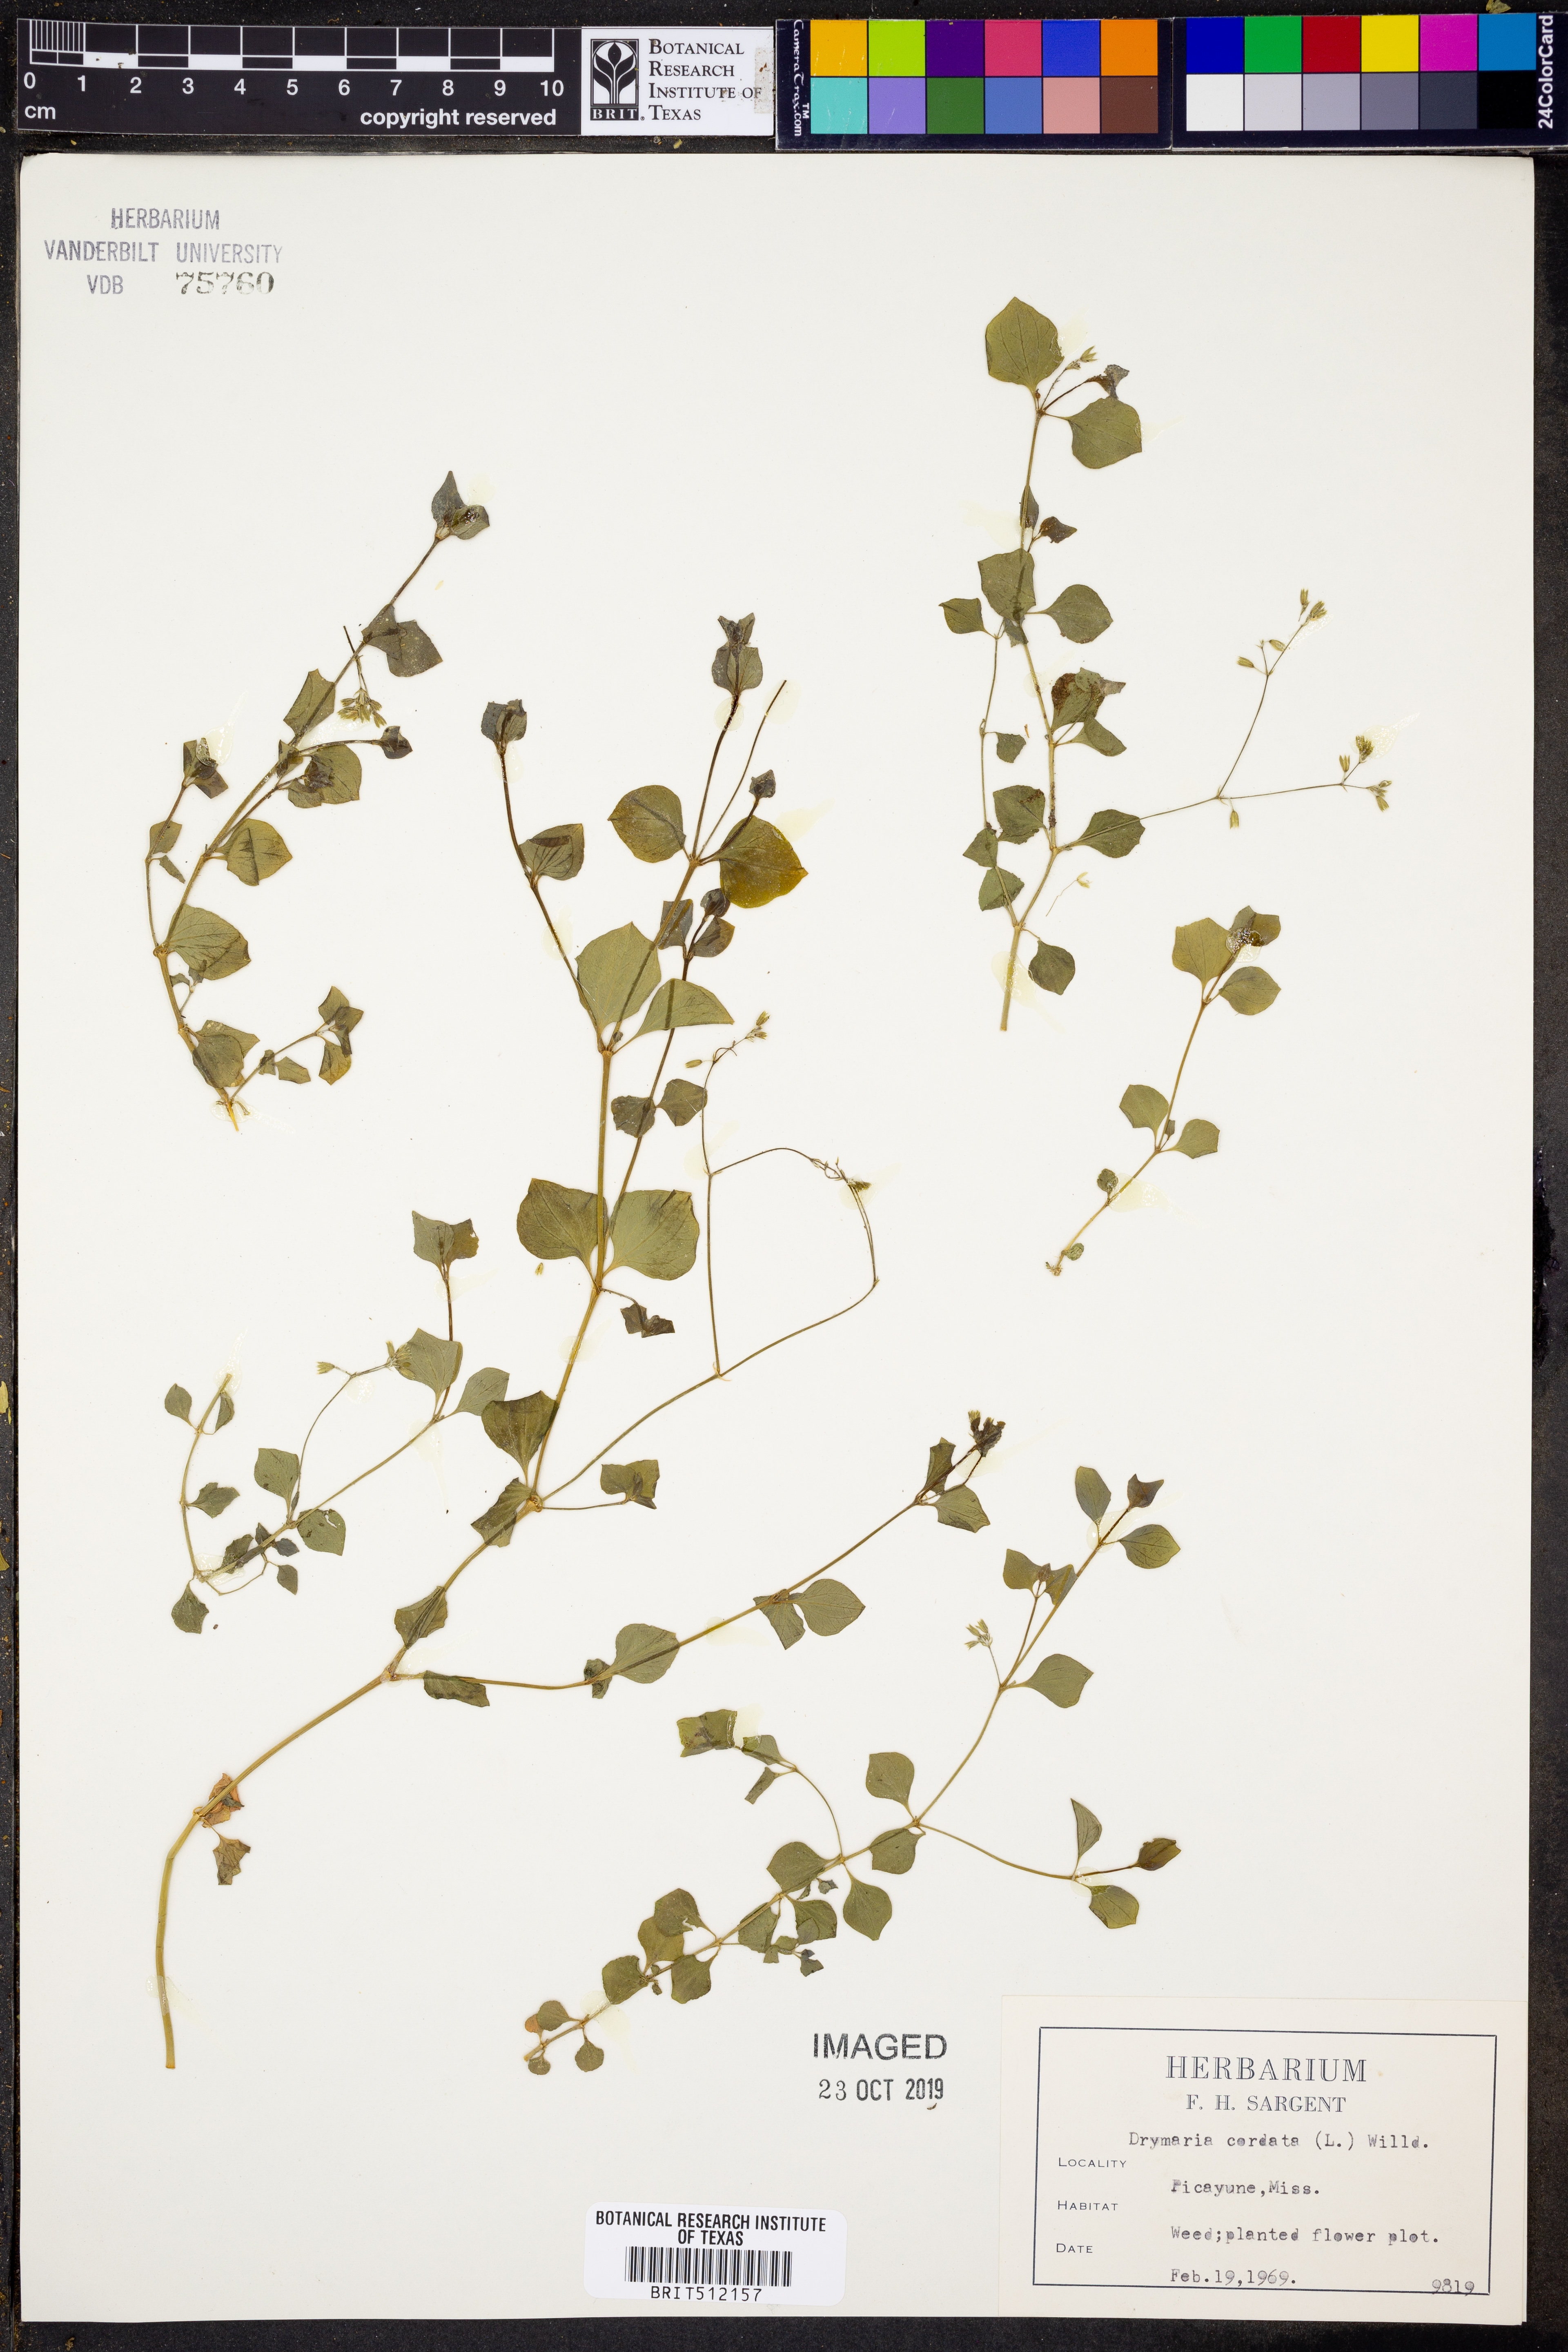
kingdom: Plantae
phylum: Tracheophyta
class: Magnoliopsida
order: Caryophyllales
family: Caryophyllaceae
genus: Drymaria
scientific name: Drymaria cordata
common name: Whitesnow
